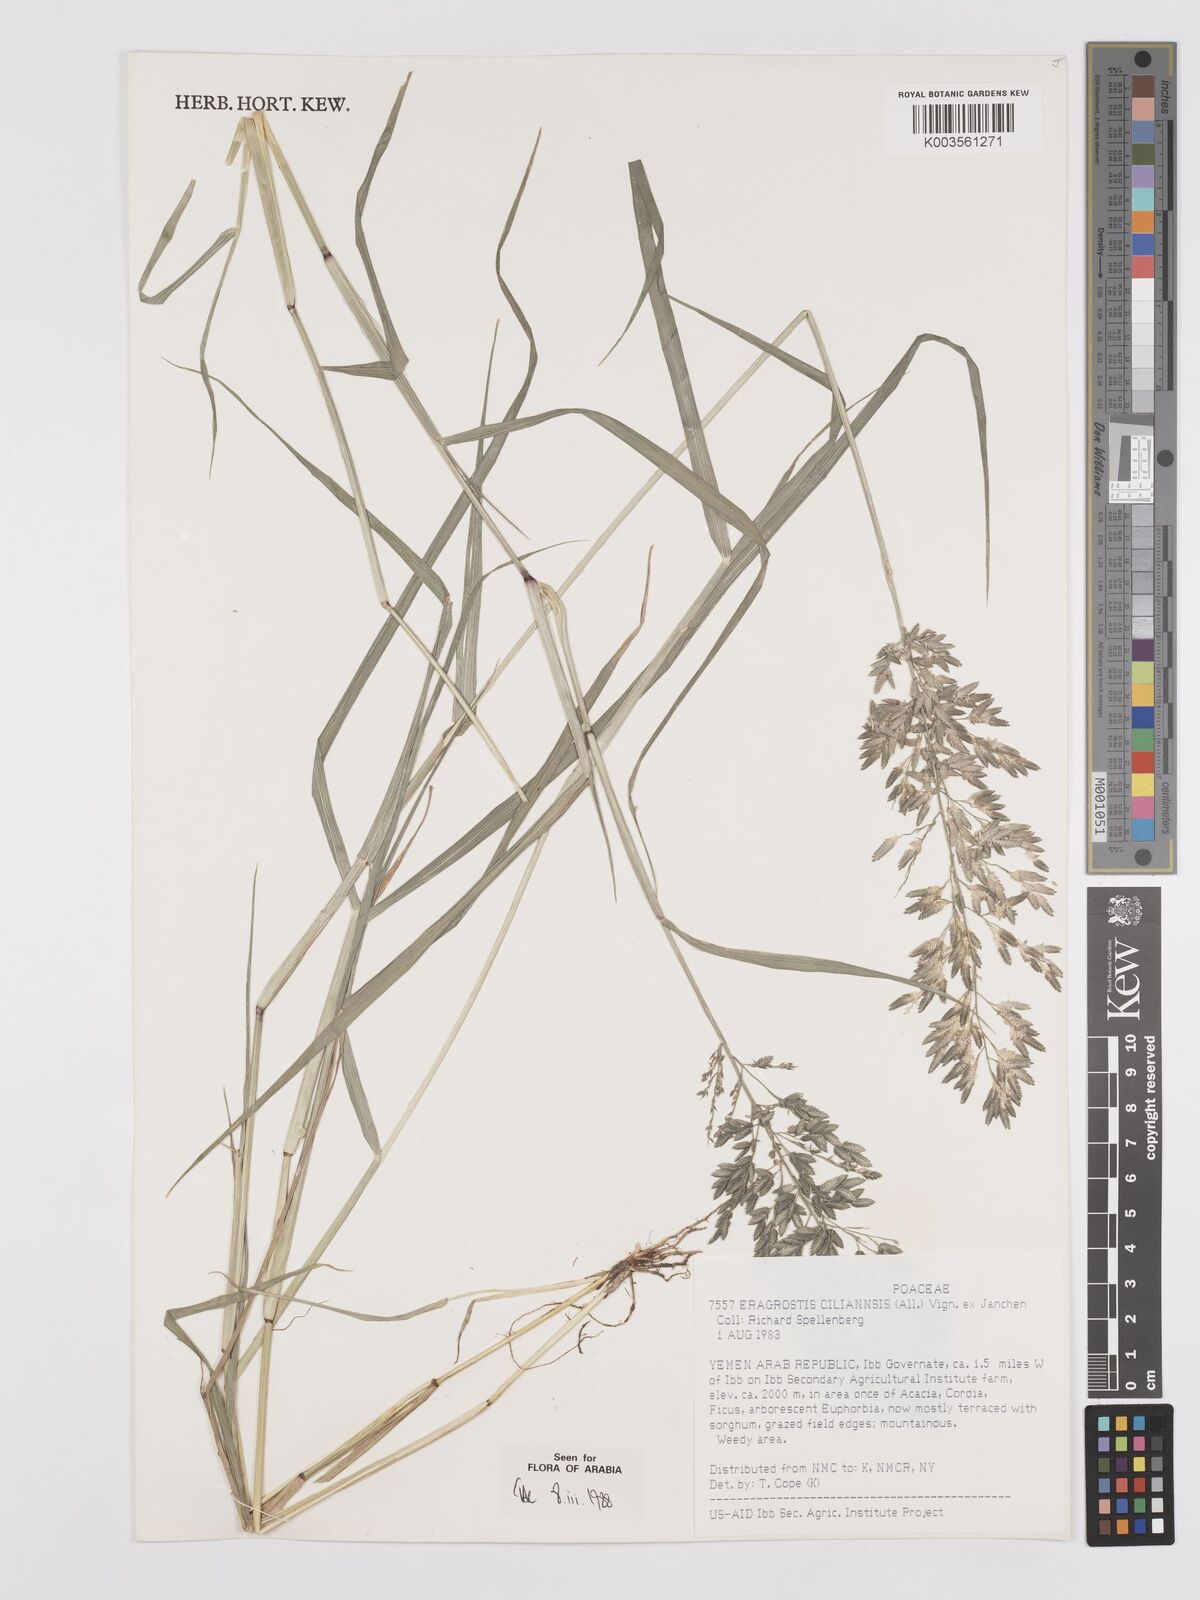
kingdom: Plantae
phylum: Tracheophyta
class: Liliopsida
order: Poales
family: Poaceae
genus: Eragrostis
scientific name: Eragrostis cilianensis
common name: Stinkgrass
